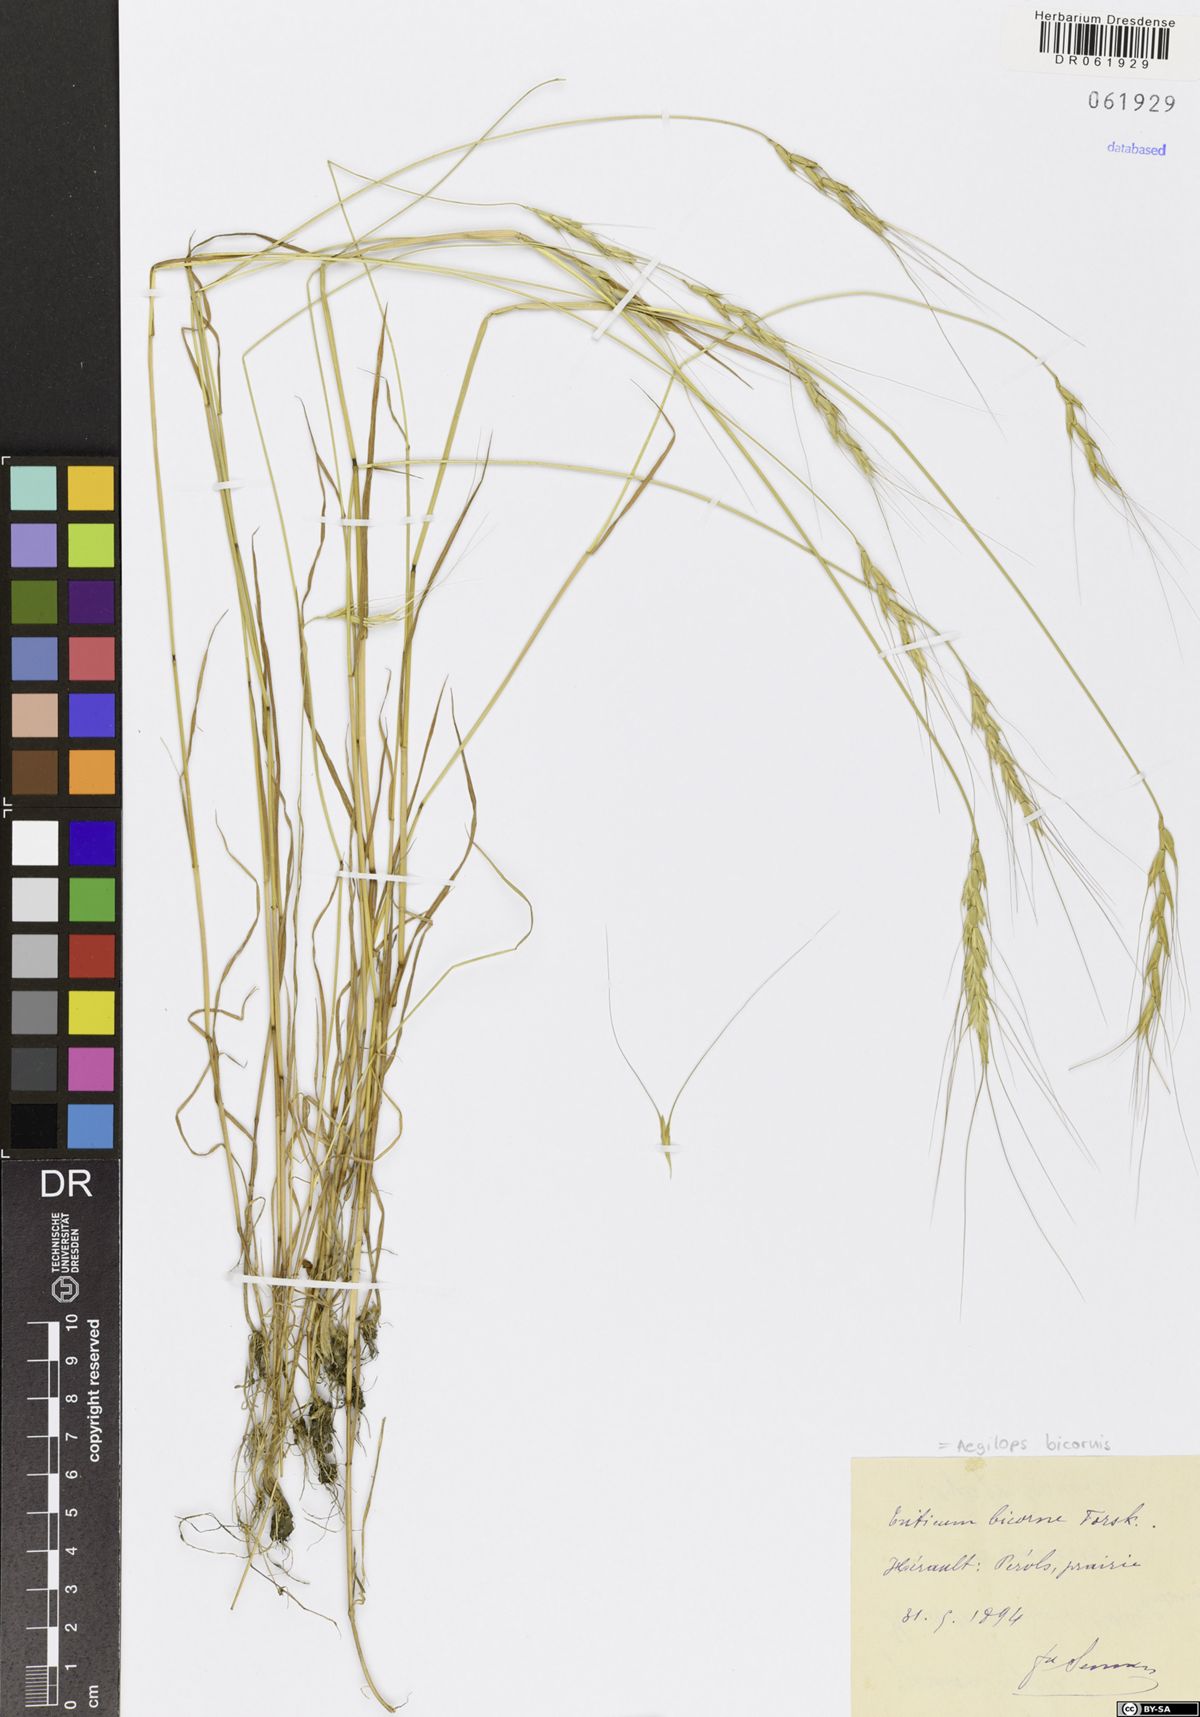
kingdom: Plantae
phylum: Tracheophyta
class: Liliopsida
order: Poales
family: Poaceae
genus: Aegilops
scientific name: Aegilops bicornis
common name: Goat grass
